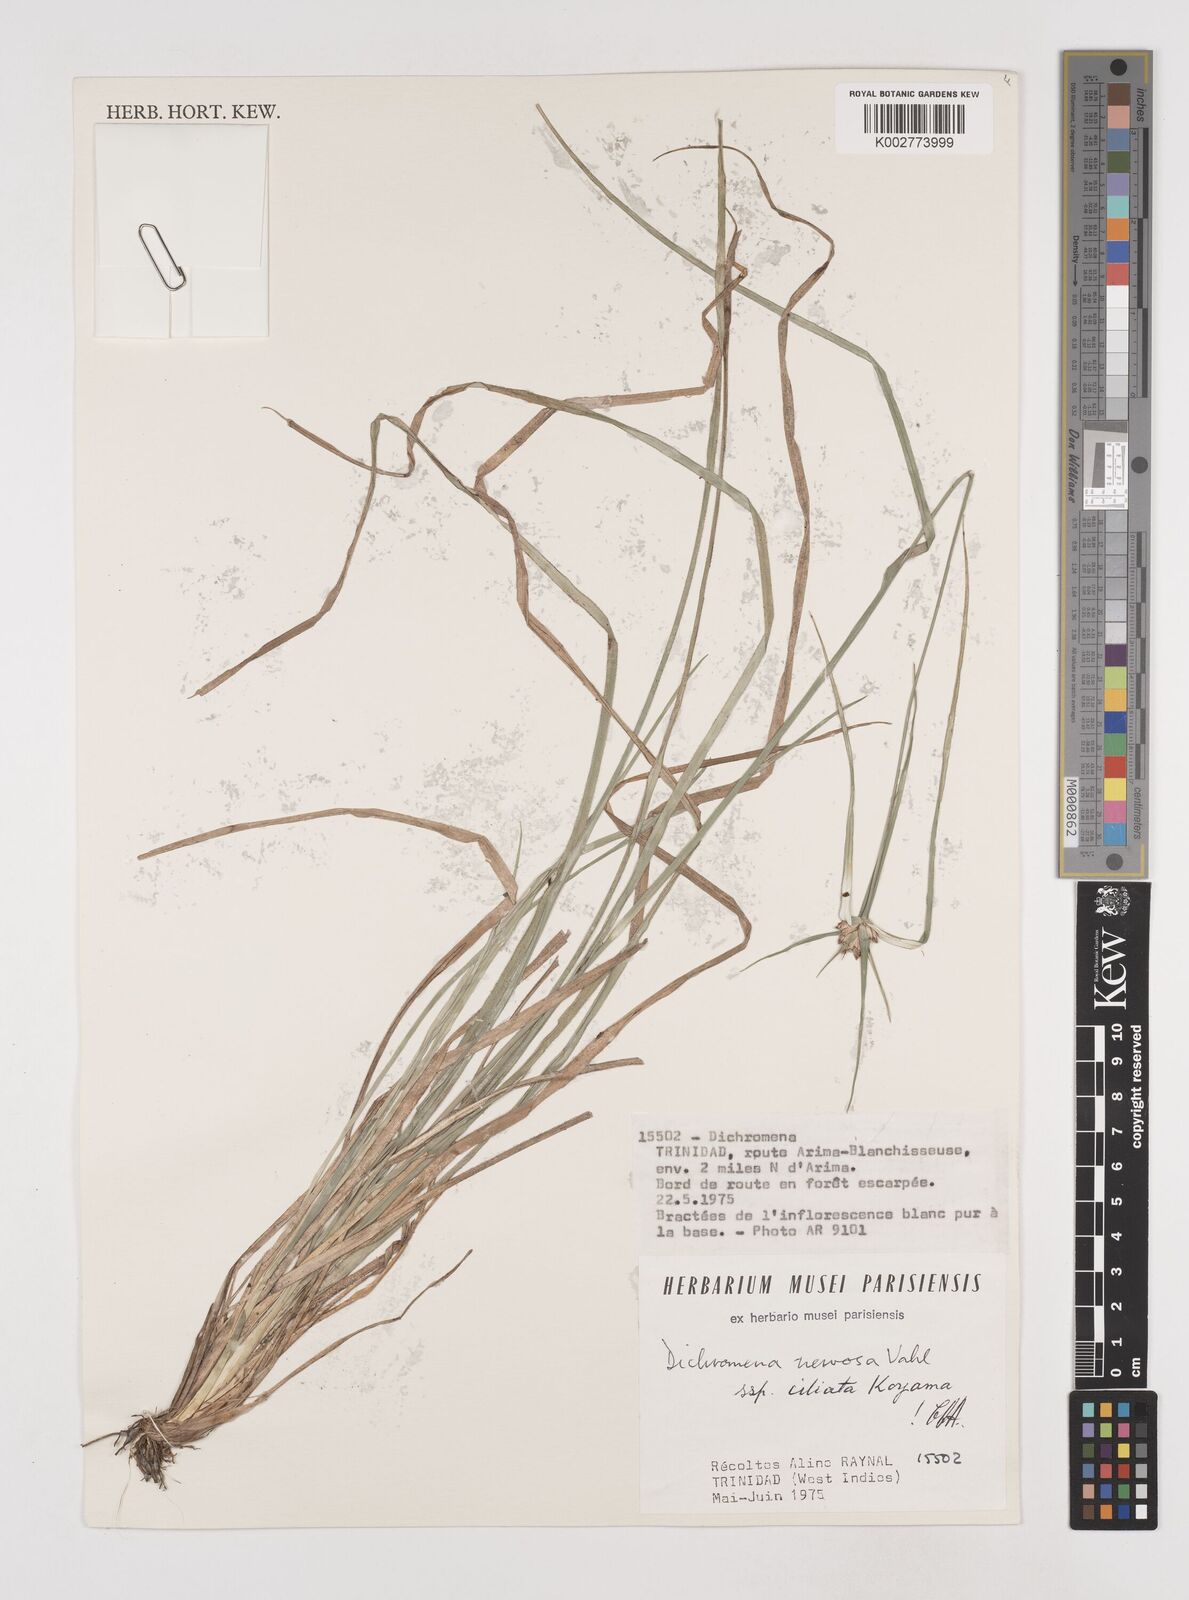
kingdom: Plantae
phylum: Tracheophyta
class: Liliopsida
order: Poales
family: Cyperaceae
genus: Rhynchospora
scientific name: Rhynchospora pura
